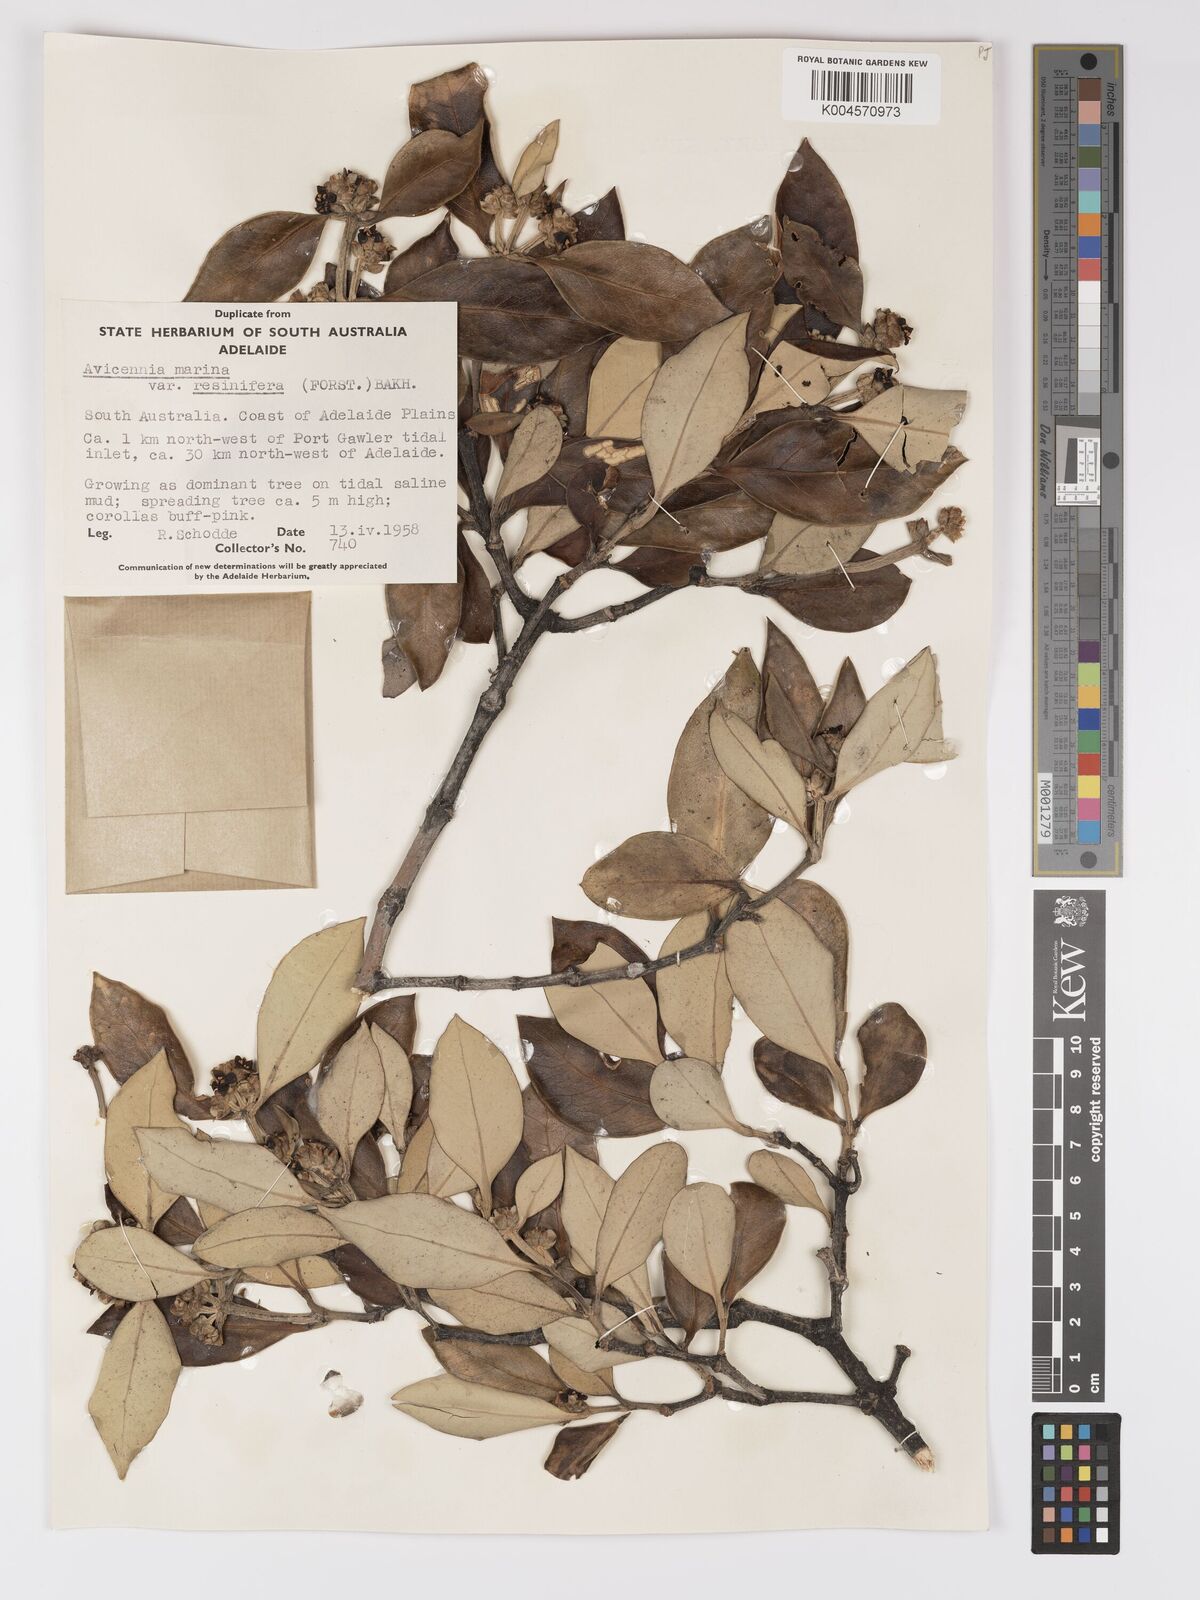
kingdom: Plantae
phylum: Tracheophyta
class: Magnoliopsida
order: Lamiales
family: Acanthaceae
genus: Avicennia
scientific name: Avicennia marina
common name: Gray mangrove
